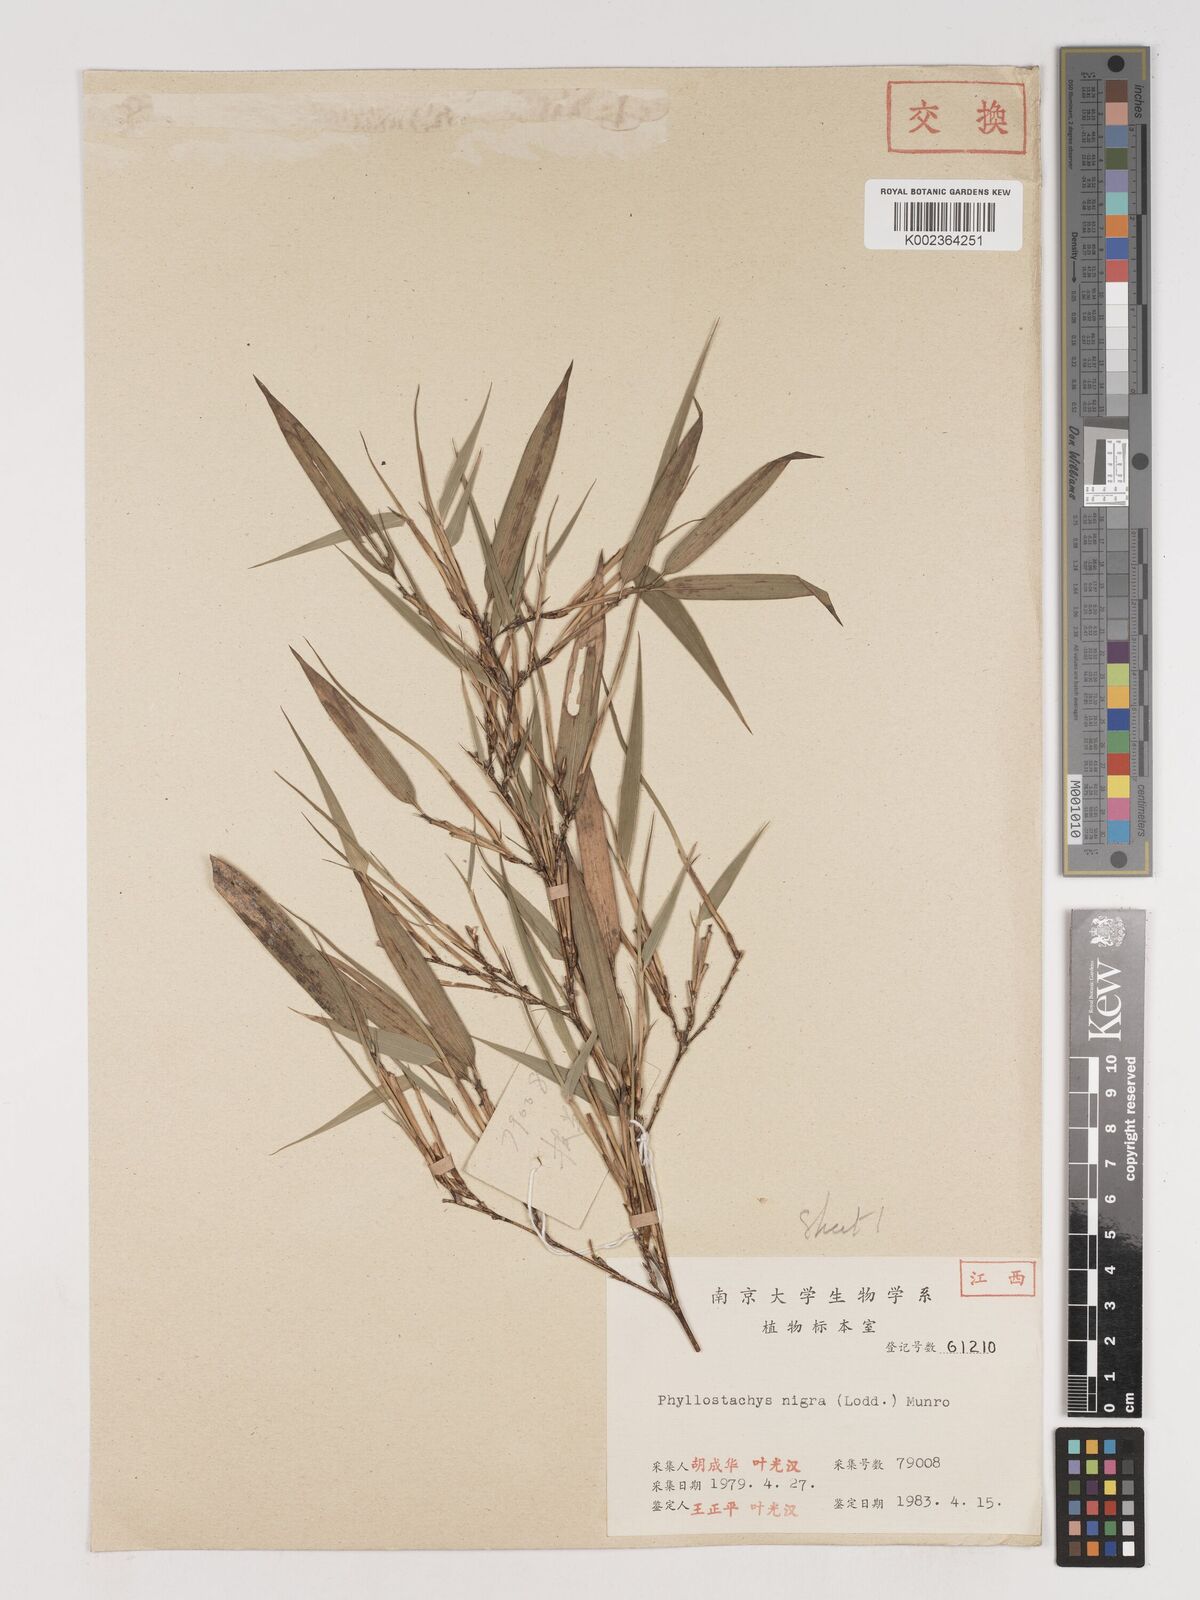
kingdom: Plantae
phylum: Tracheophyta
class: Liliopsida
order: Poales
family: Poaceae
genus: Phyllostachys
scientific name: Phyllostachys nigra
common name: Black bamboo
